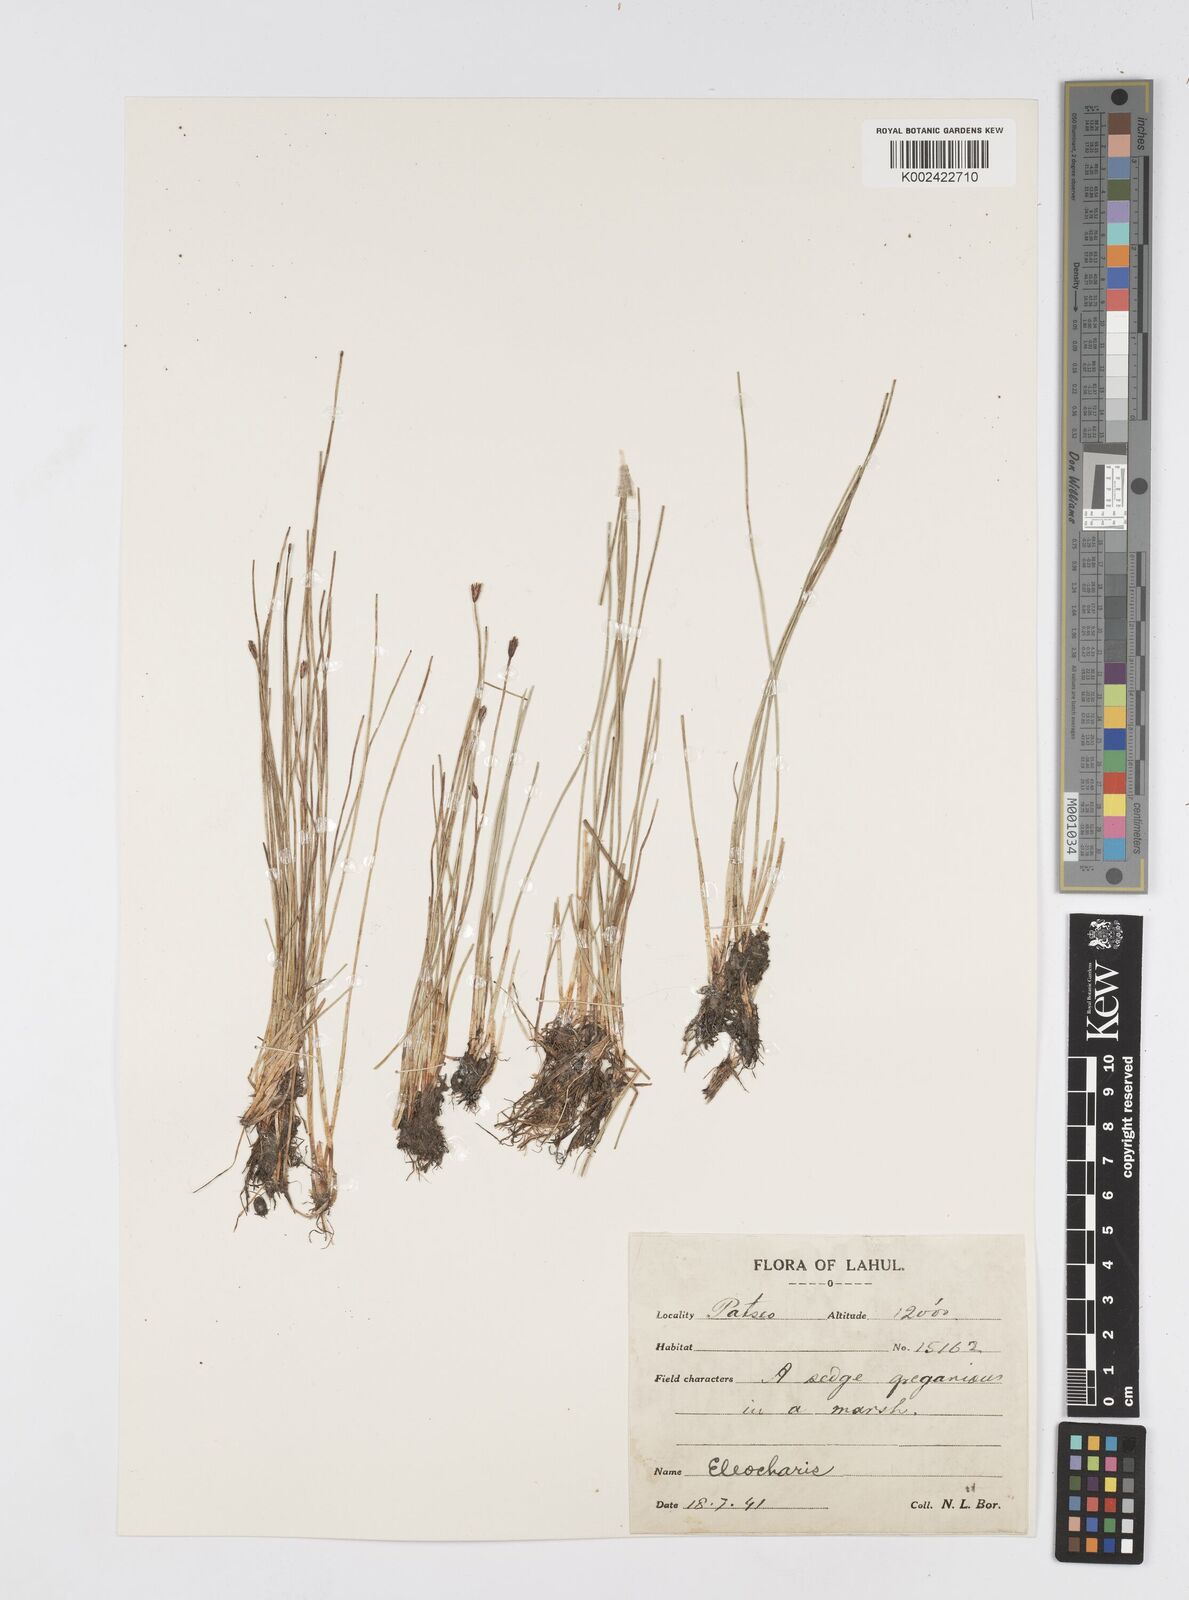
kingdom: Plantae
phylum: Tracheophyta
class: Liliopsida
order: Poales
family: Cyperaceae
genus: Eleocharis
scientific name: Eleocharis
